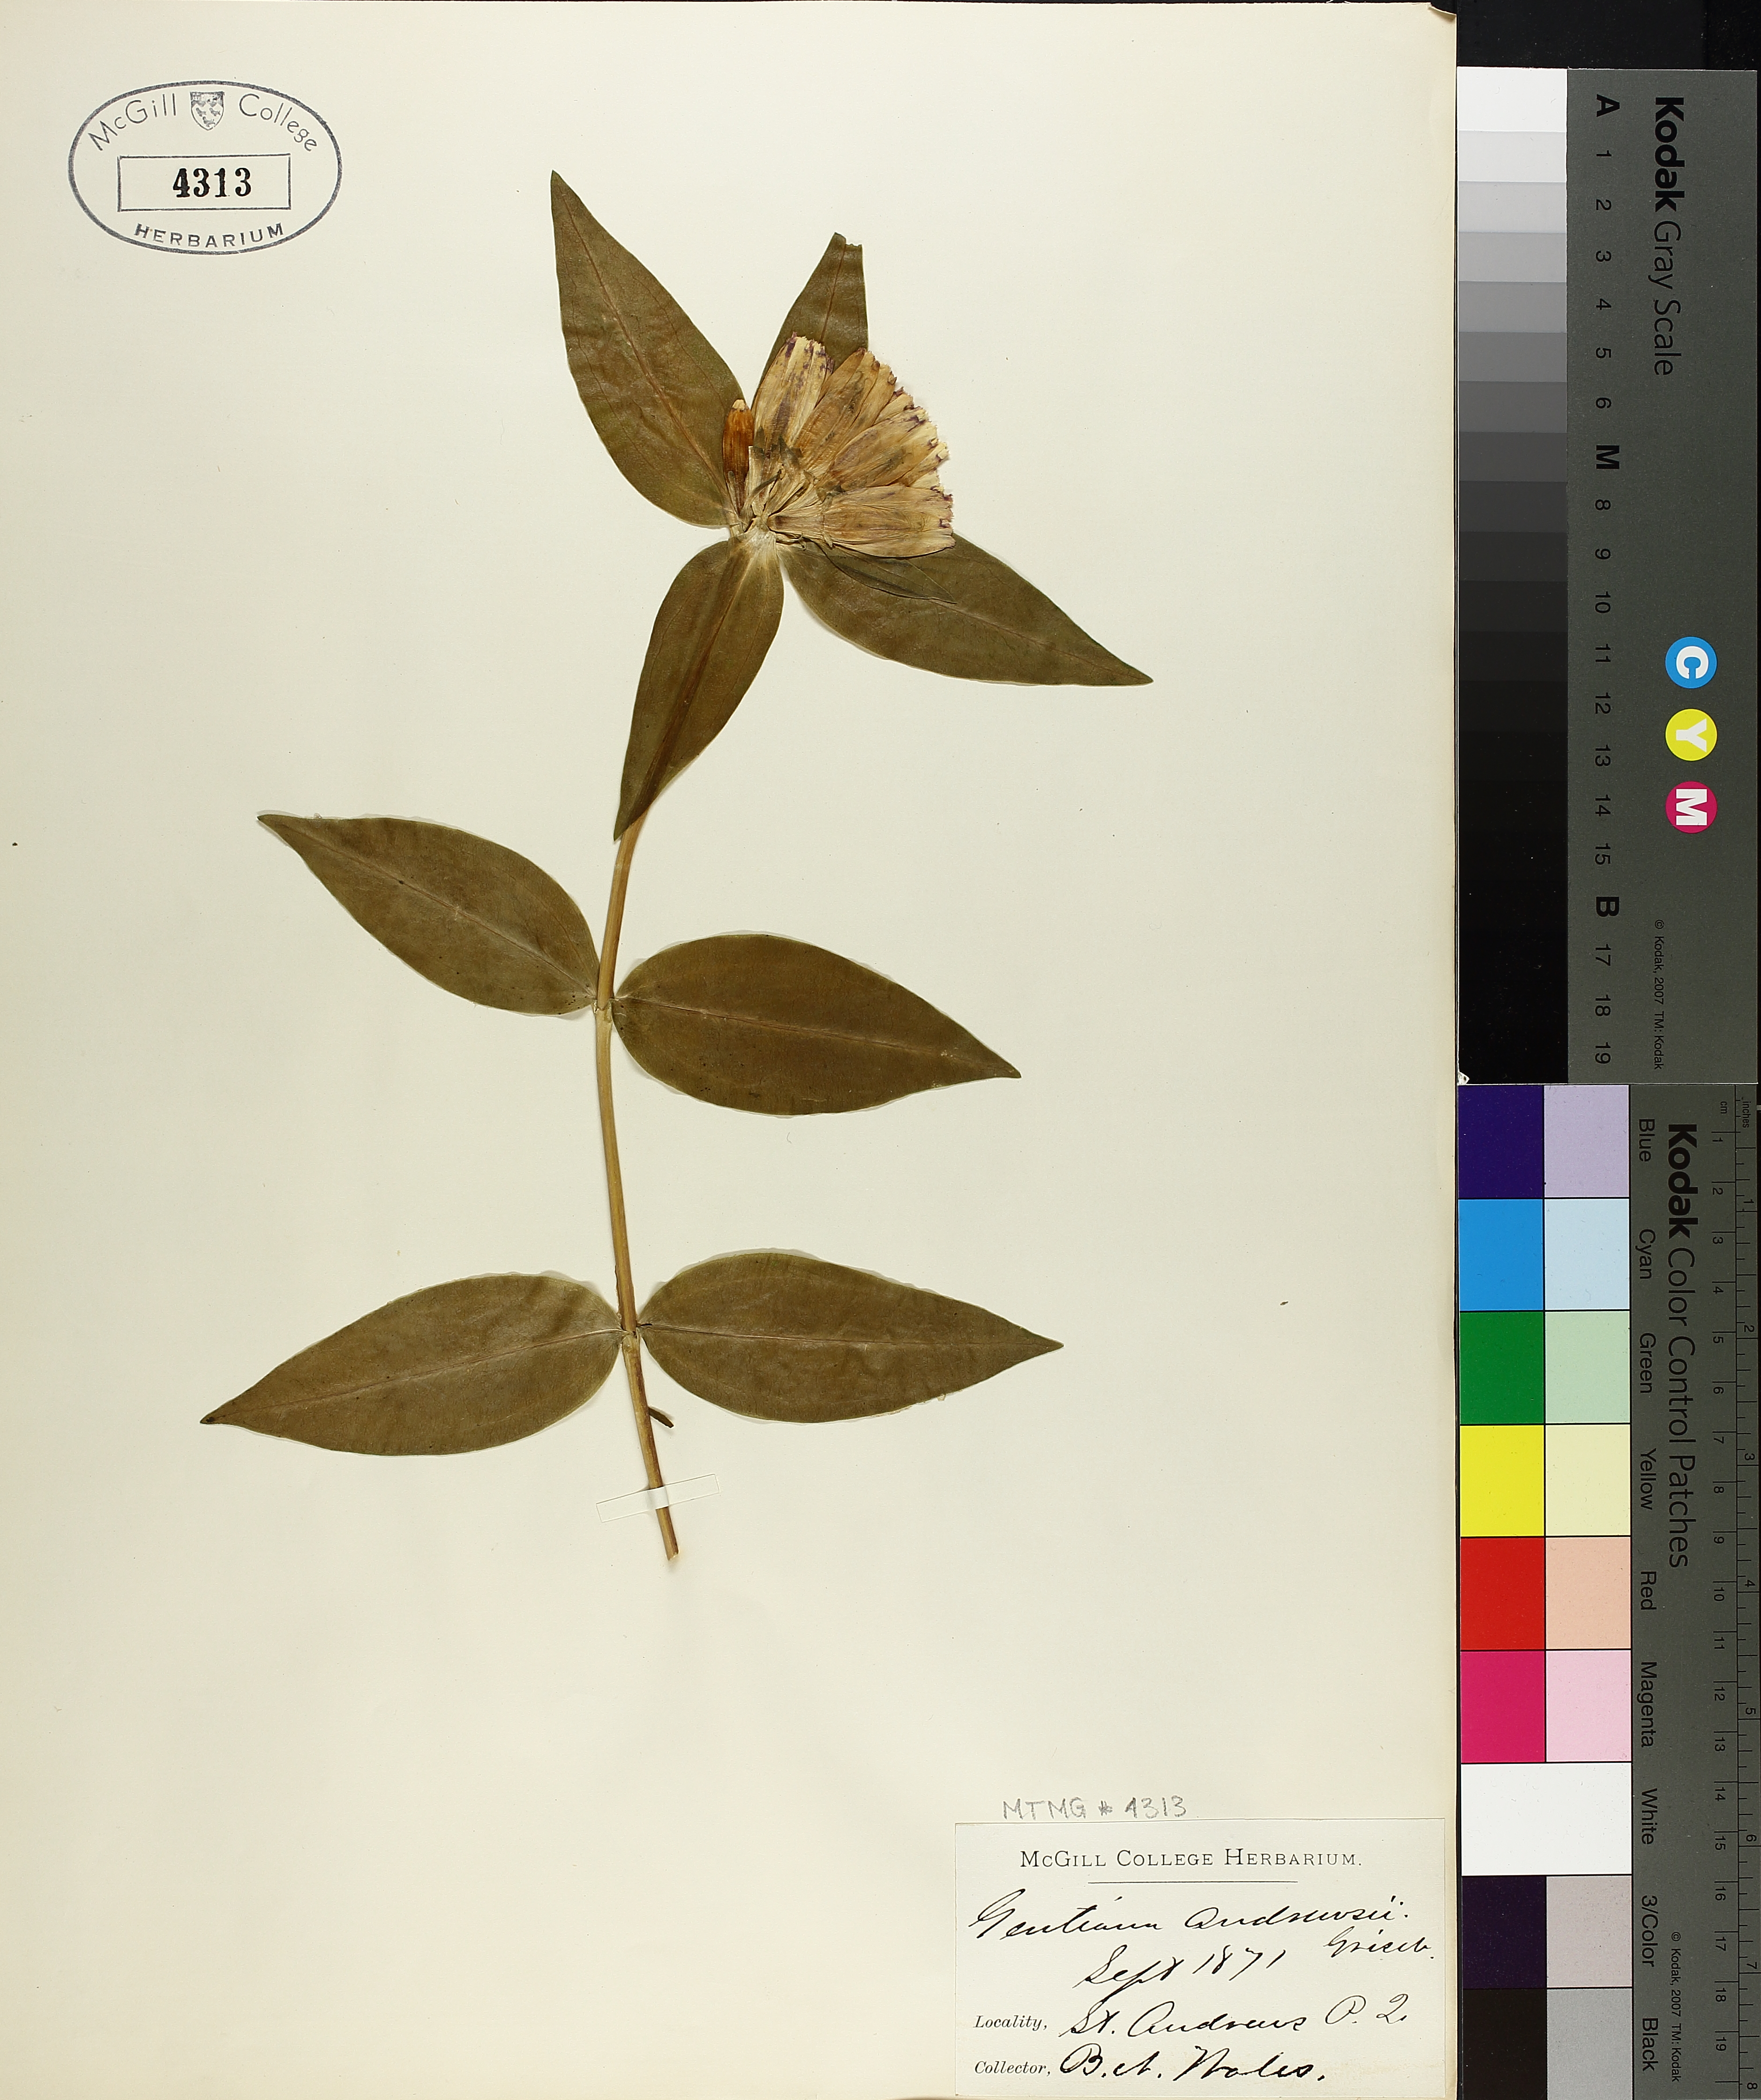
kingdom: Plantae
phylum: Tracheophyta
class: Magnoliopsida
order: Gentianales
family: Gentianaceae
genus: Gentiana
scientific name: Gentiana andrewsii
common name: Bottle gentian
